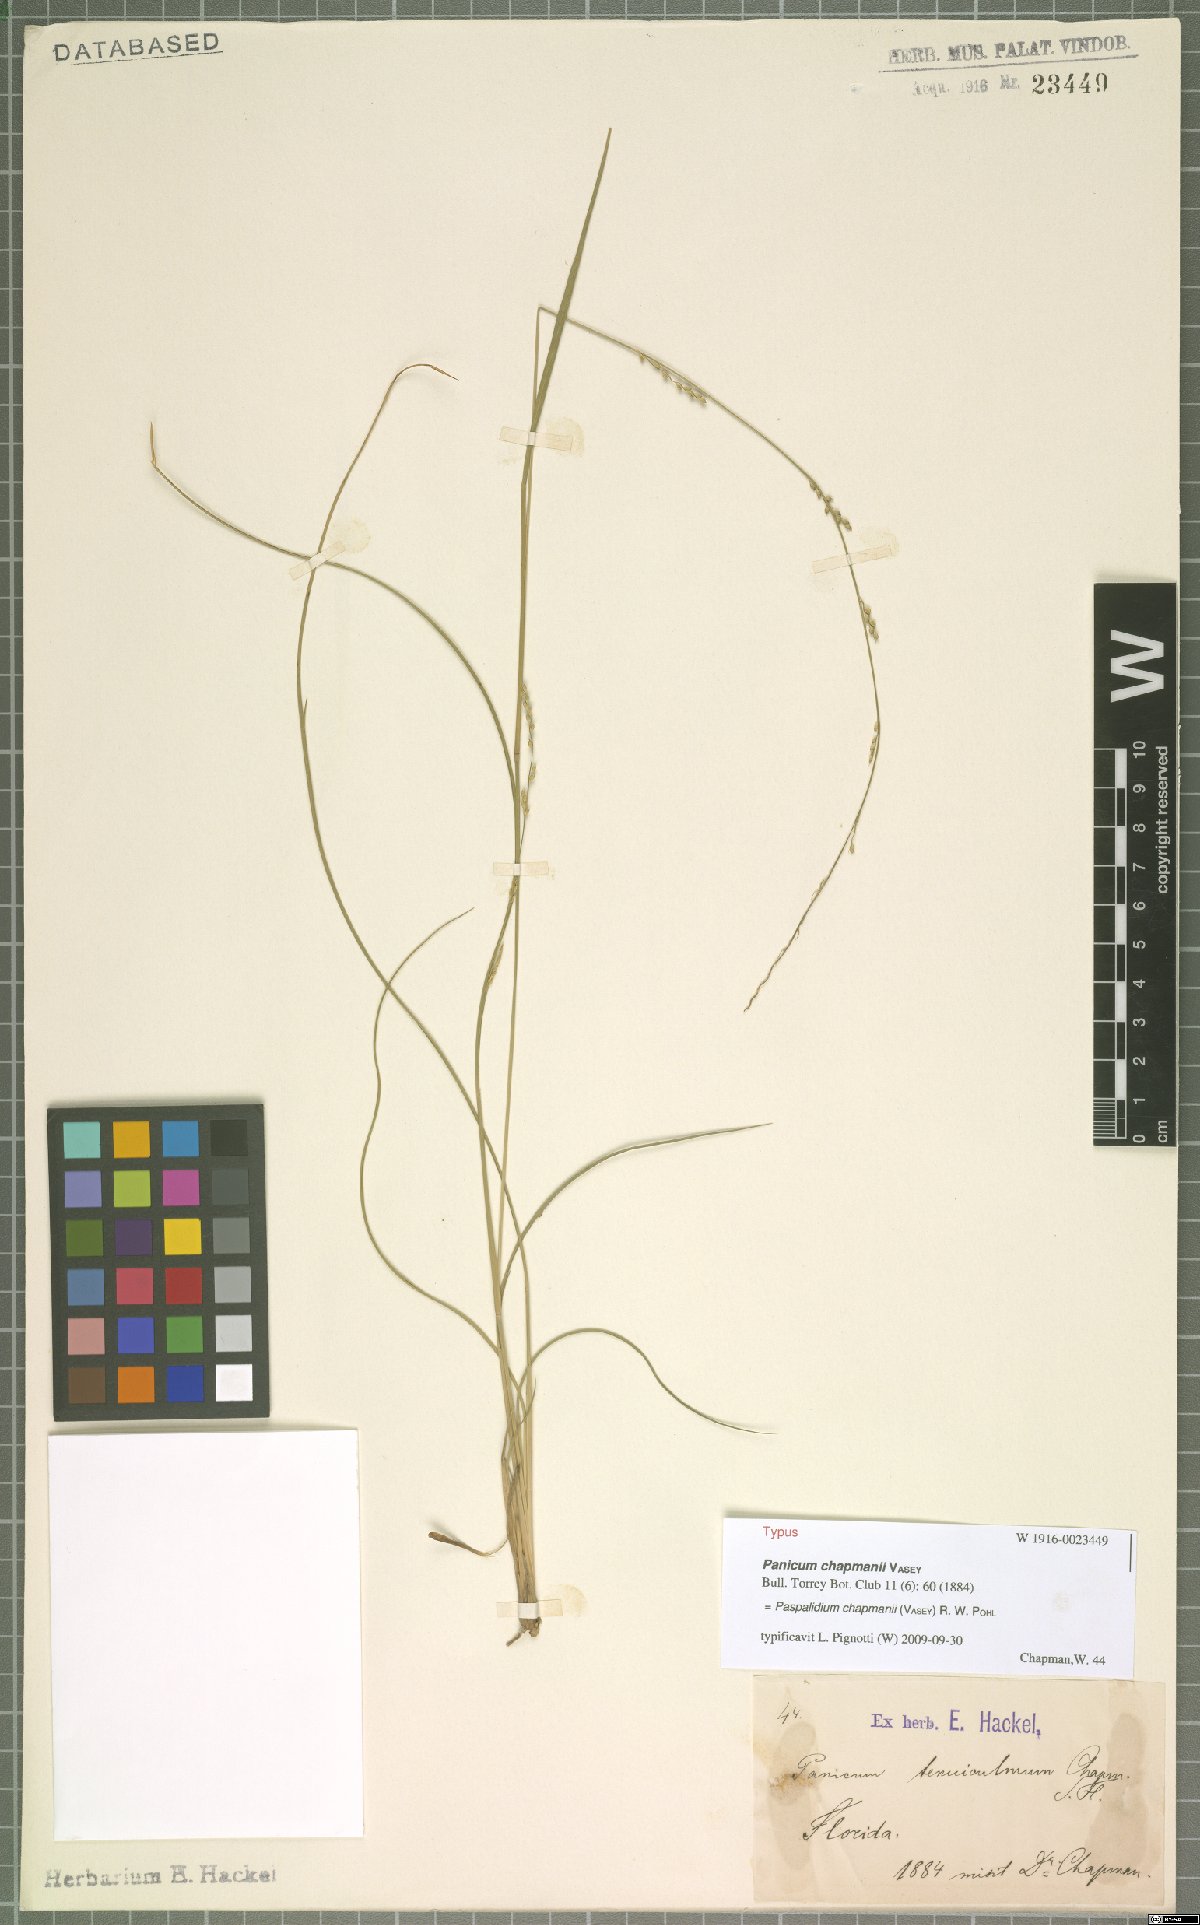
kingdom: Plantae
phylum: Tracheophyta
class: Liliopsida
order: Poales
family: Poaceae
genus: Setaria
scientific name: Setaria chapmanii
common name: Chapman's bristle grass
